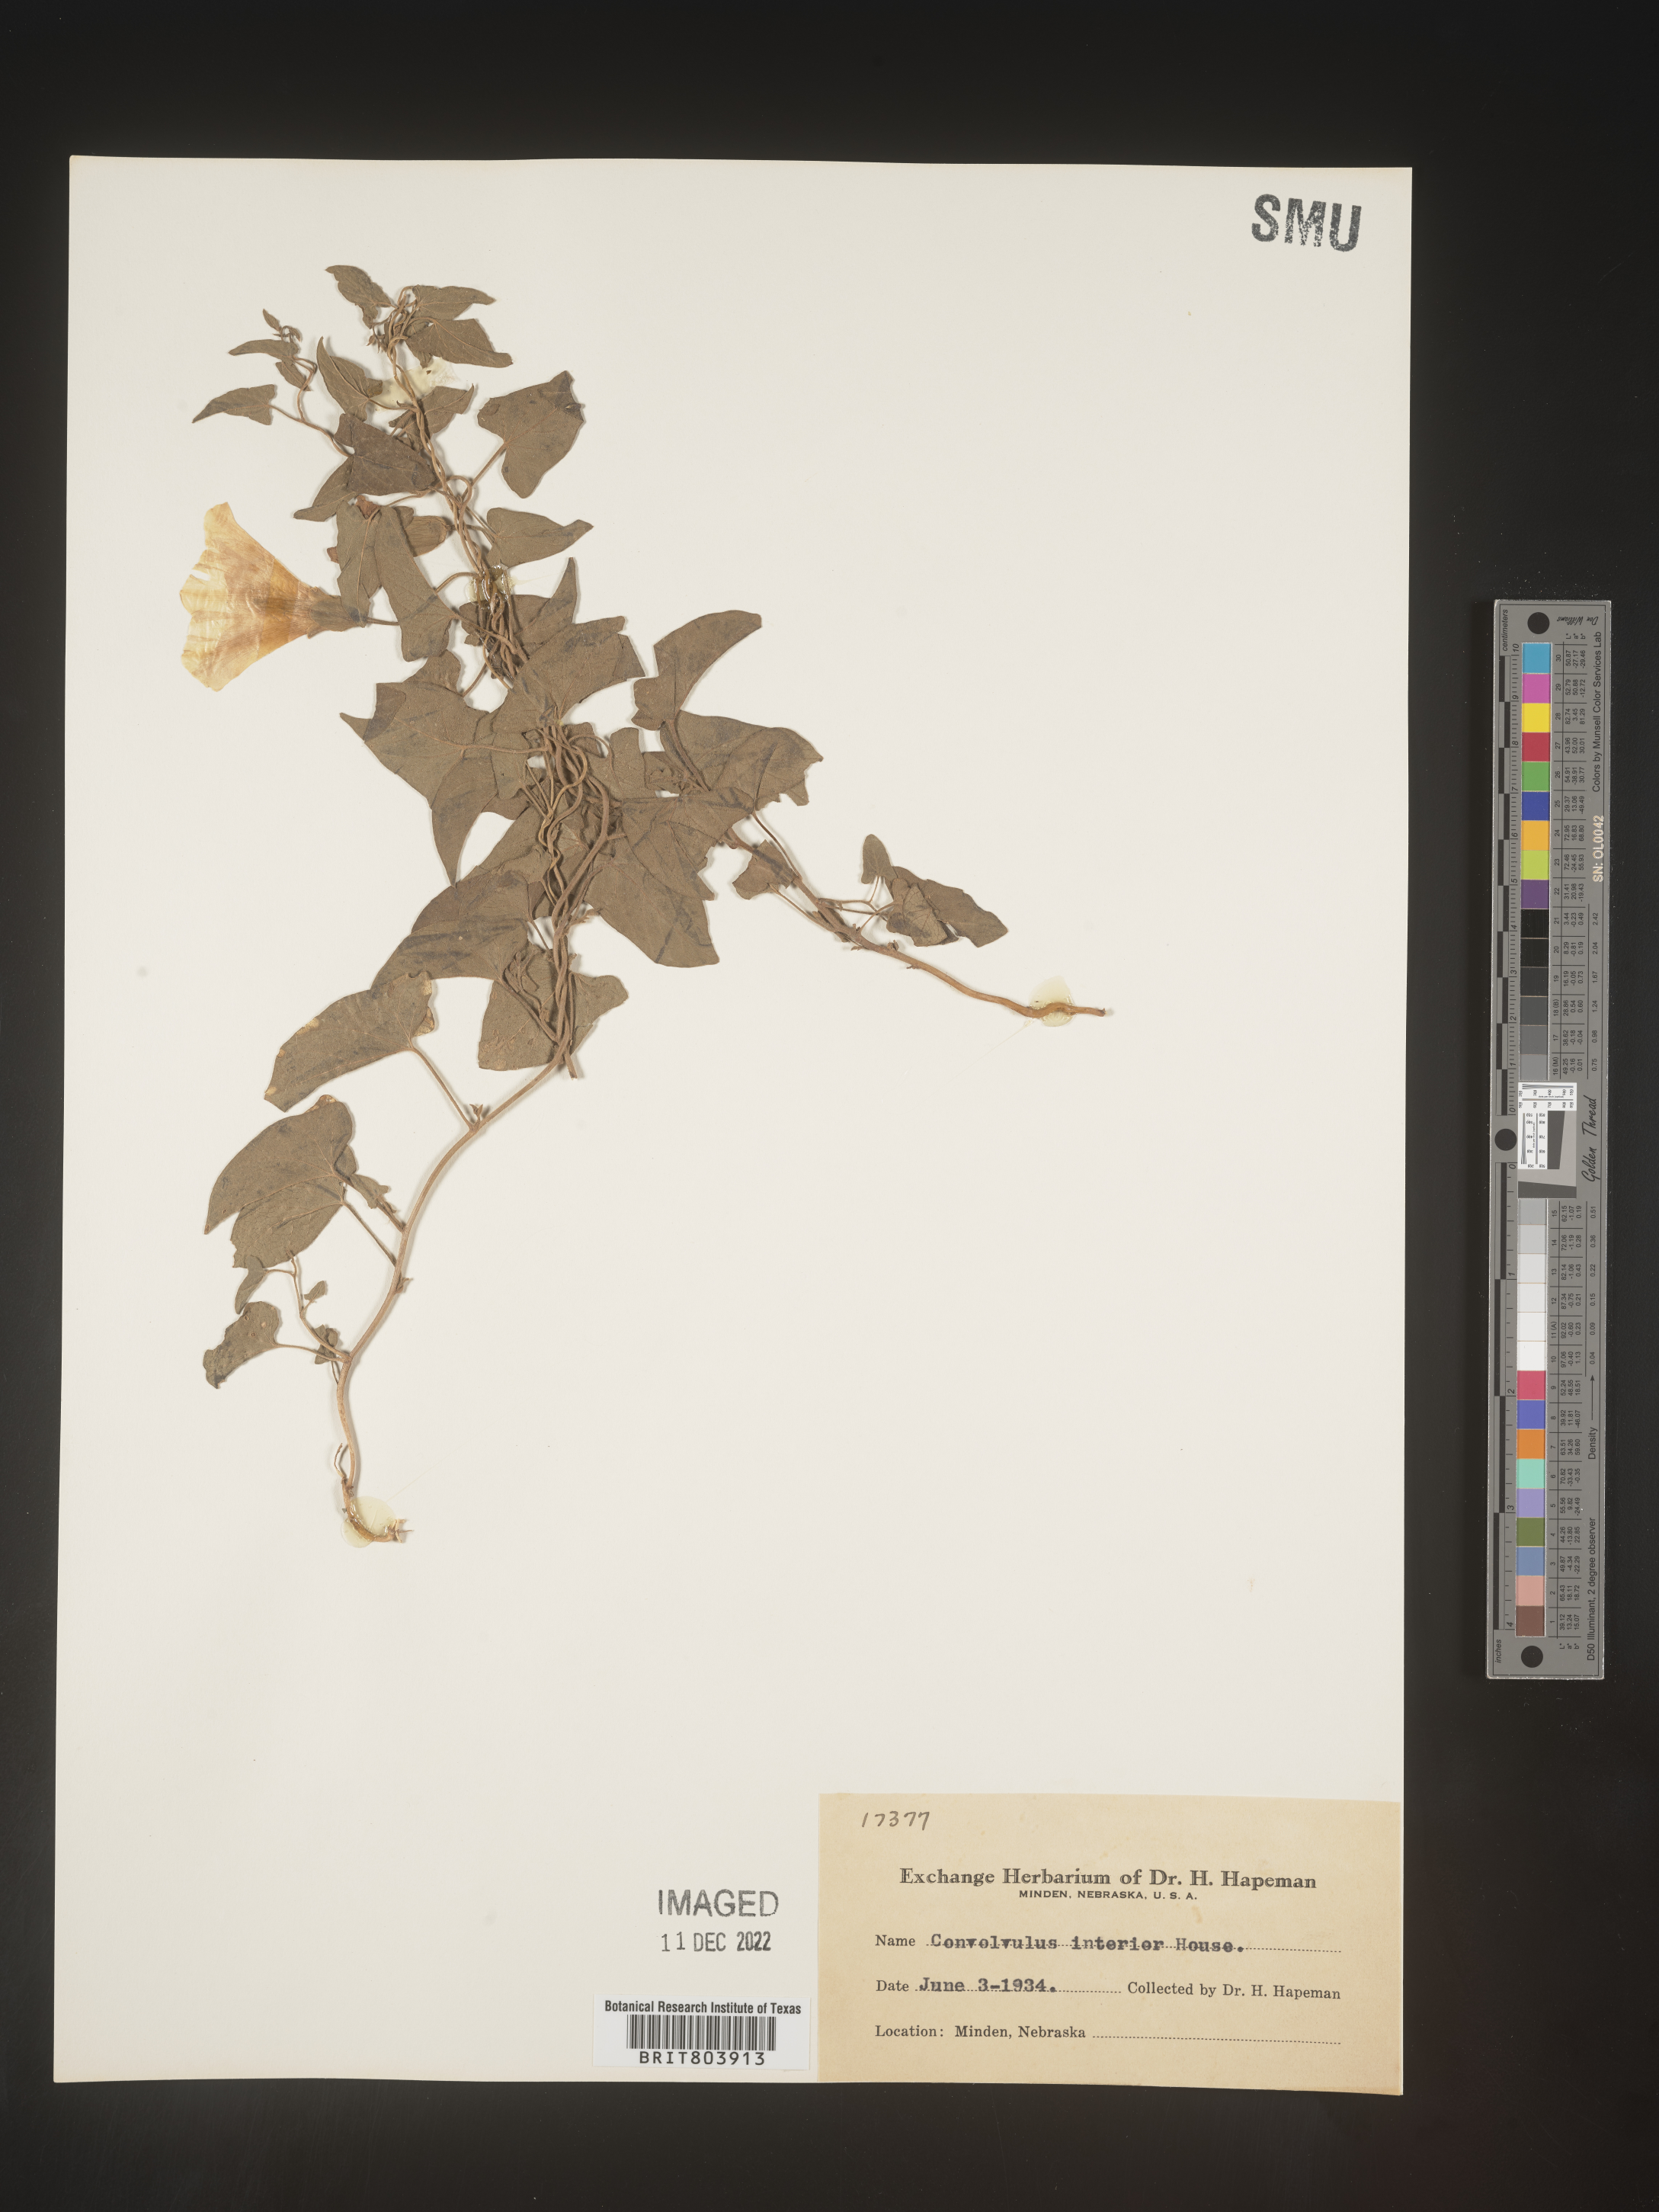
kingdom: Plantae
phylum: Tracheophyta
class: Magnoliopsida
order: Solanales
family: Convolvulaceae
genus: Calystegia
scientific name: Calystegia sepium
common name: Hedge bindweed
